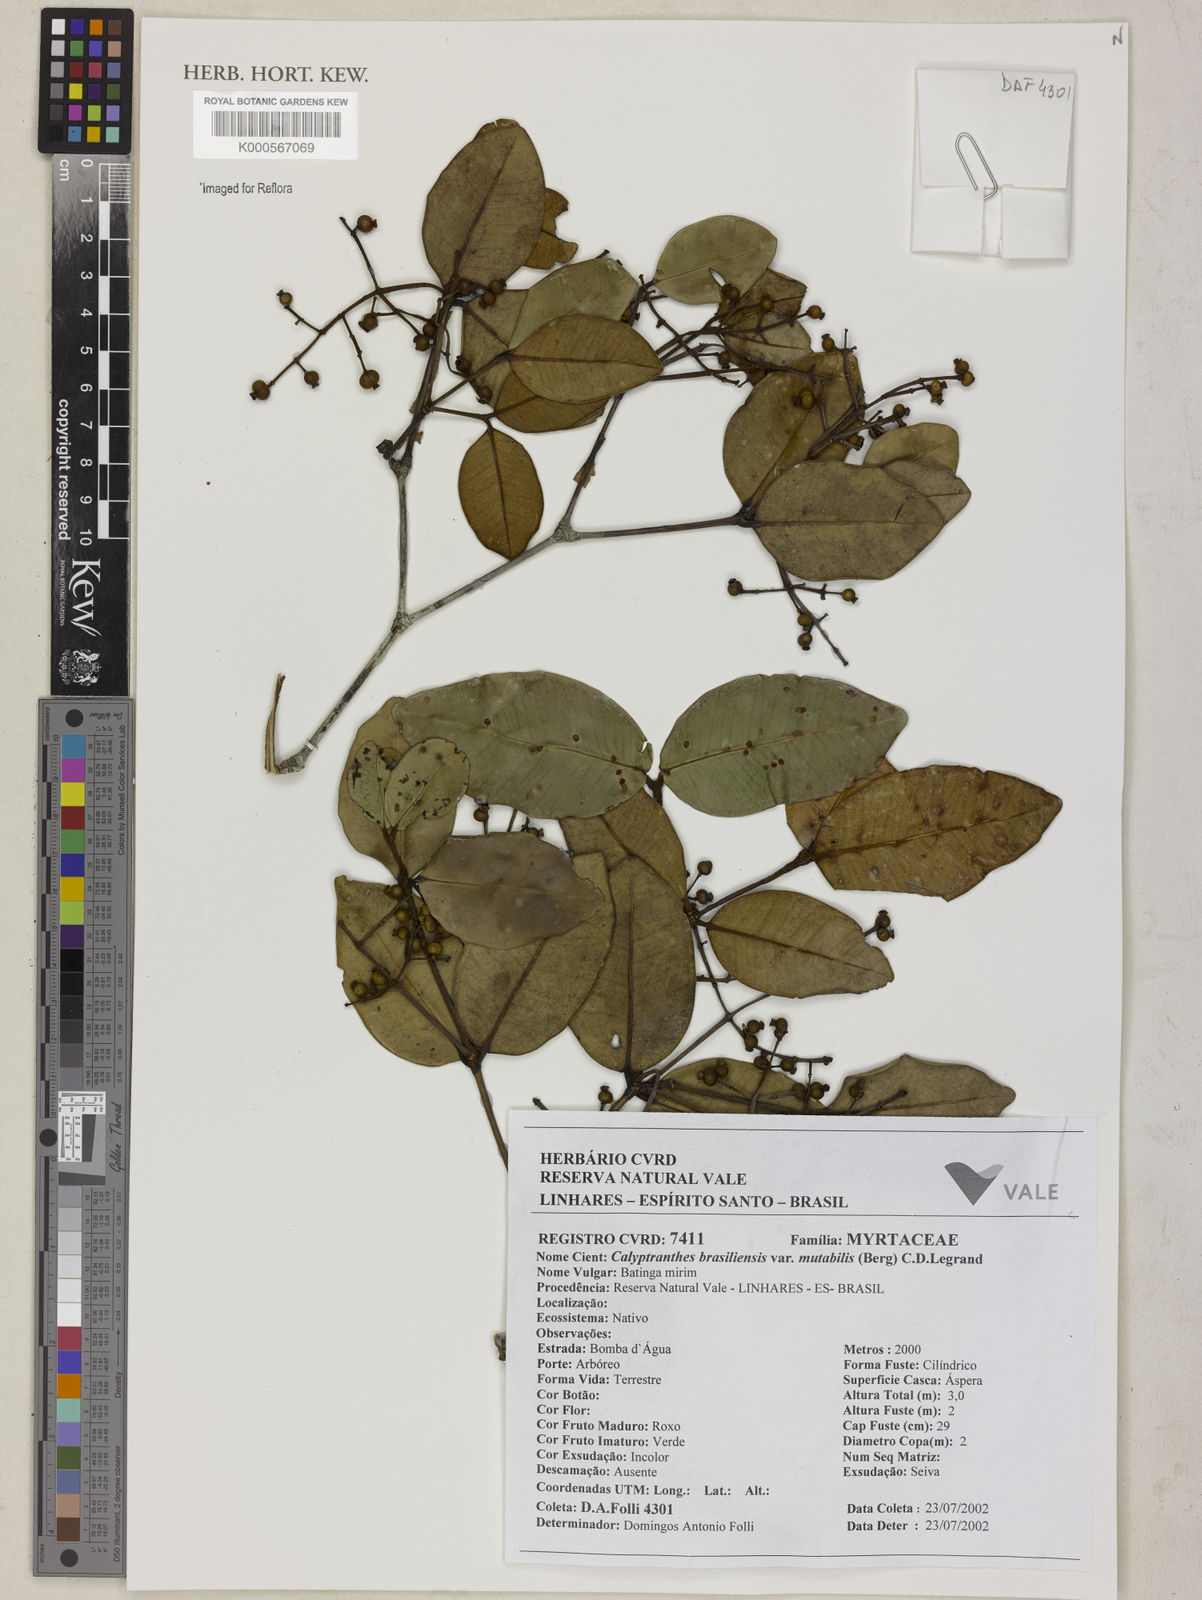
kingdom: Plantae
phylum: Tracheophyta
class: Magnoliopsida
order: Myrtales
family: Myrtaceae
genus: Myrcia
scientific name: Myrcia neobrasiliensis
